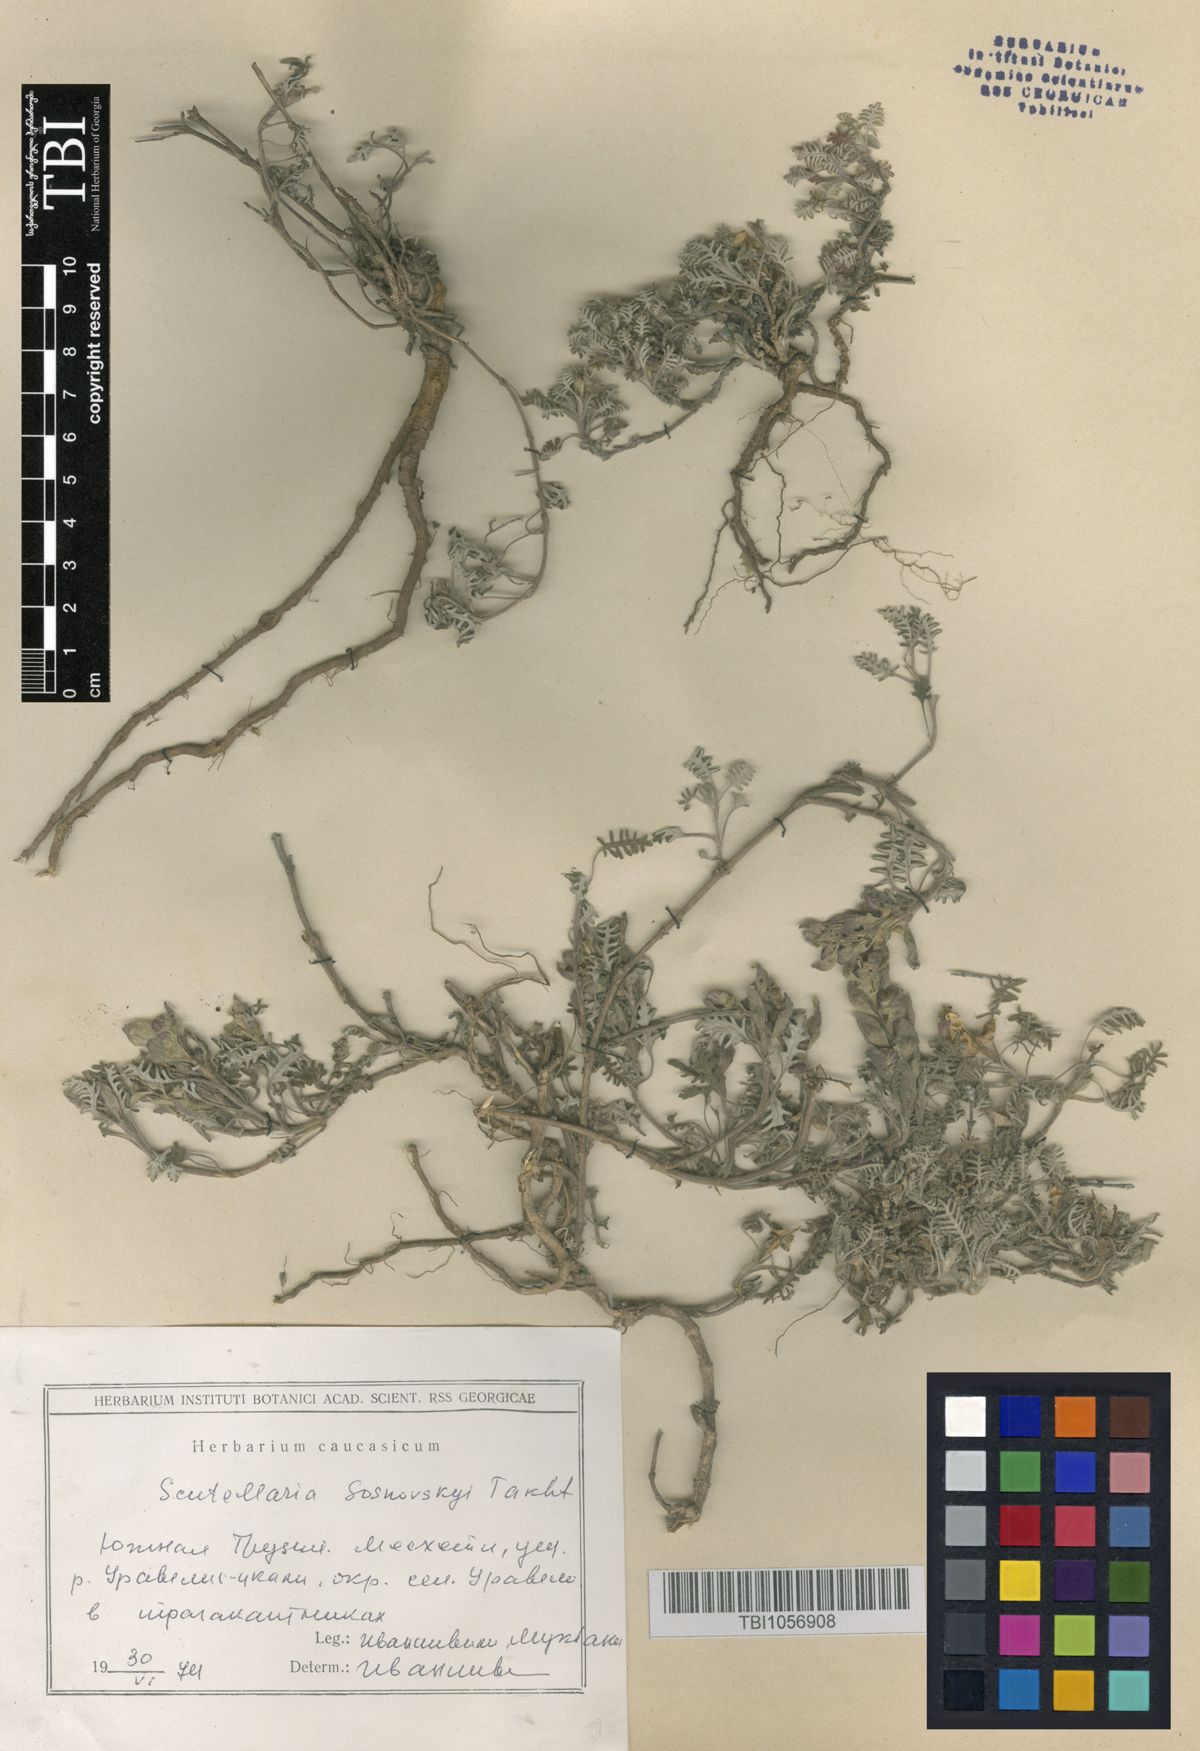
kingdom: Plantae
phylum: Tracheophyta
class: Magnoliopsida
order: Lamiales
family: Lamiaceae
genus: Scutellaria
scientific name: Scutellaria sosnowskyi
